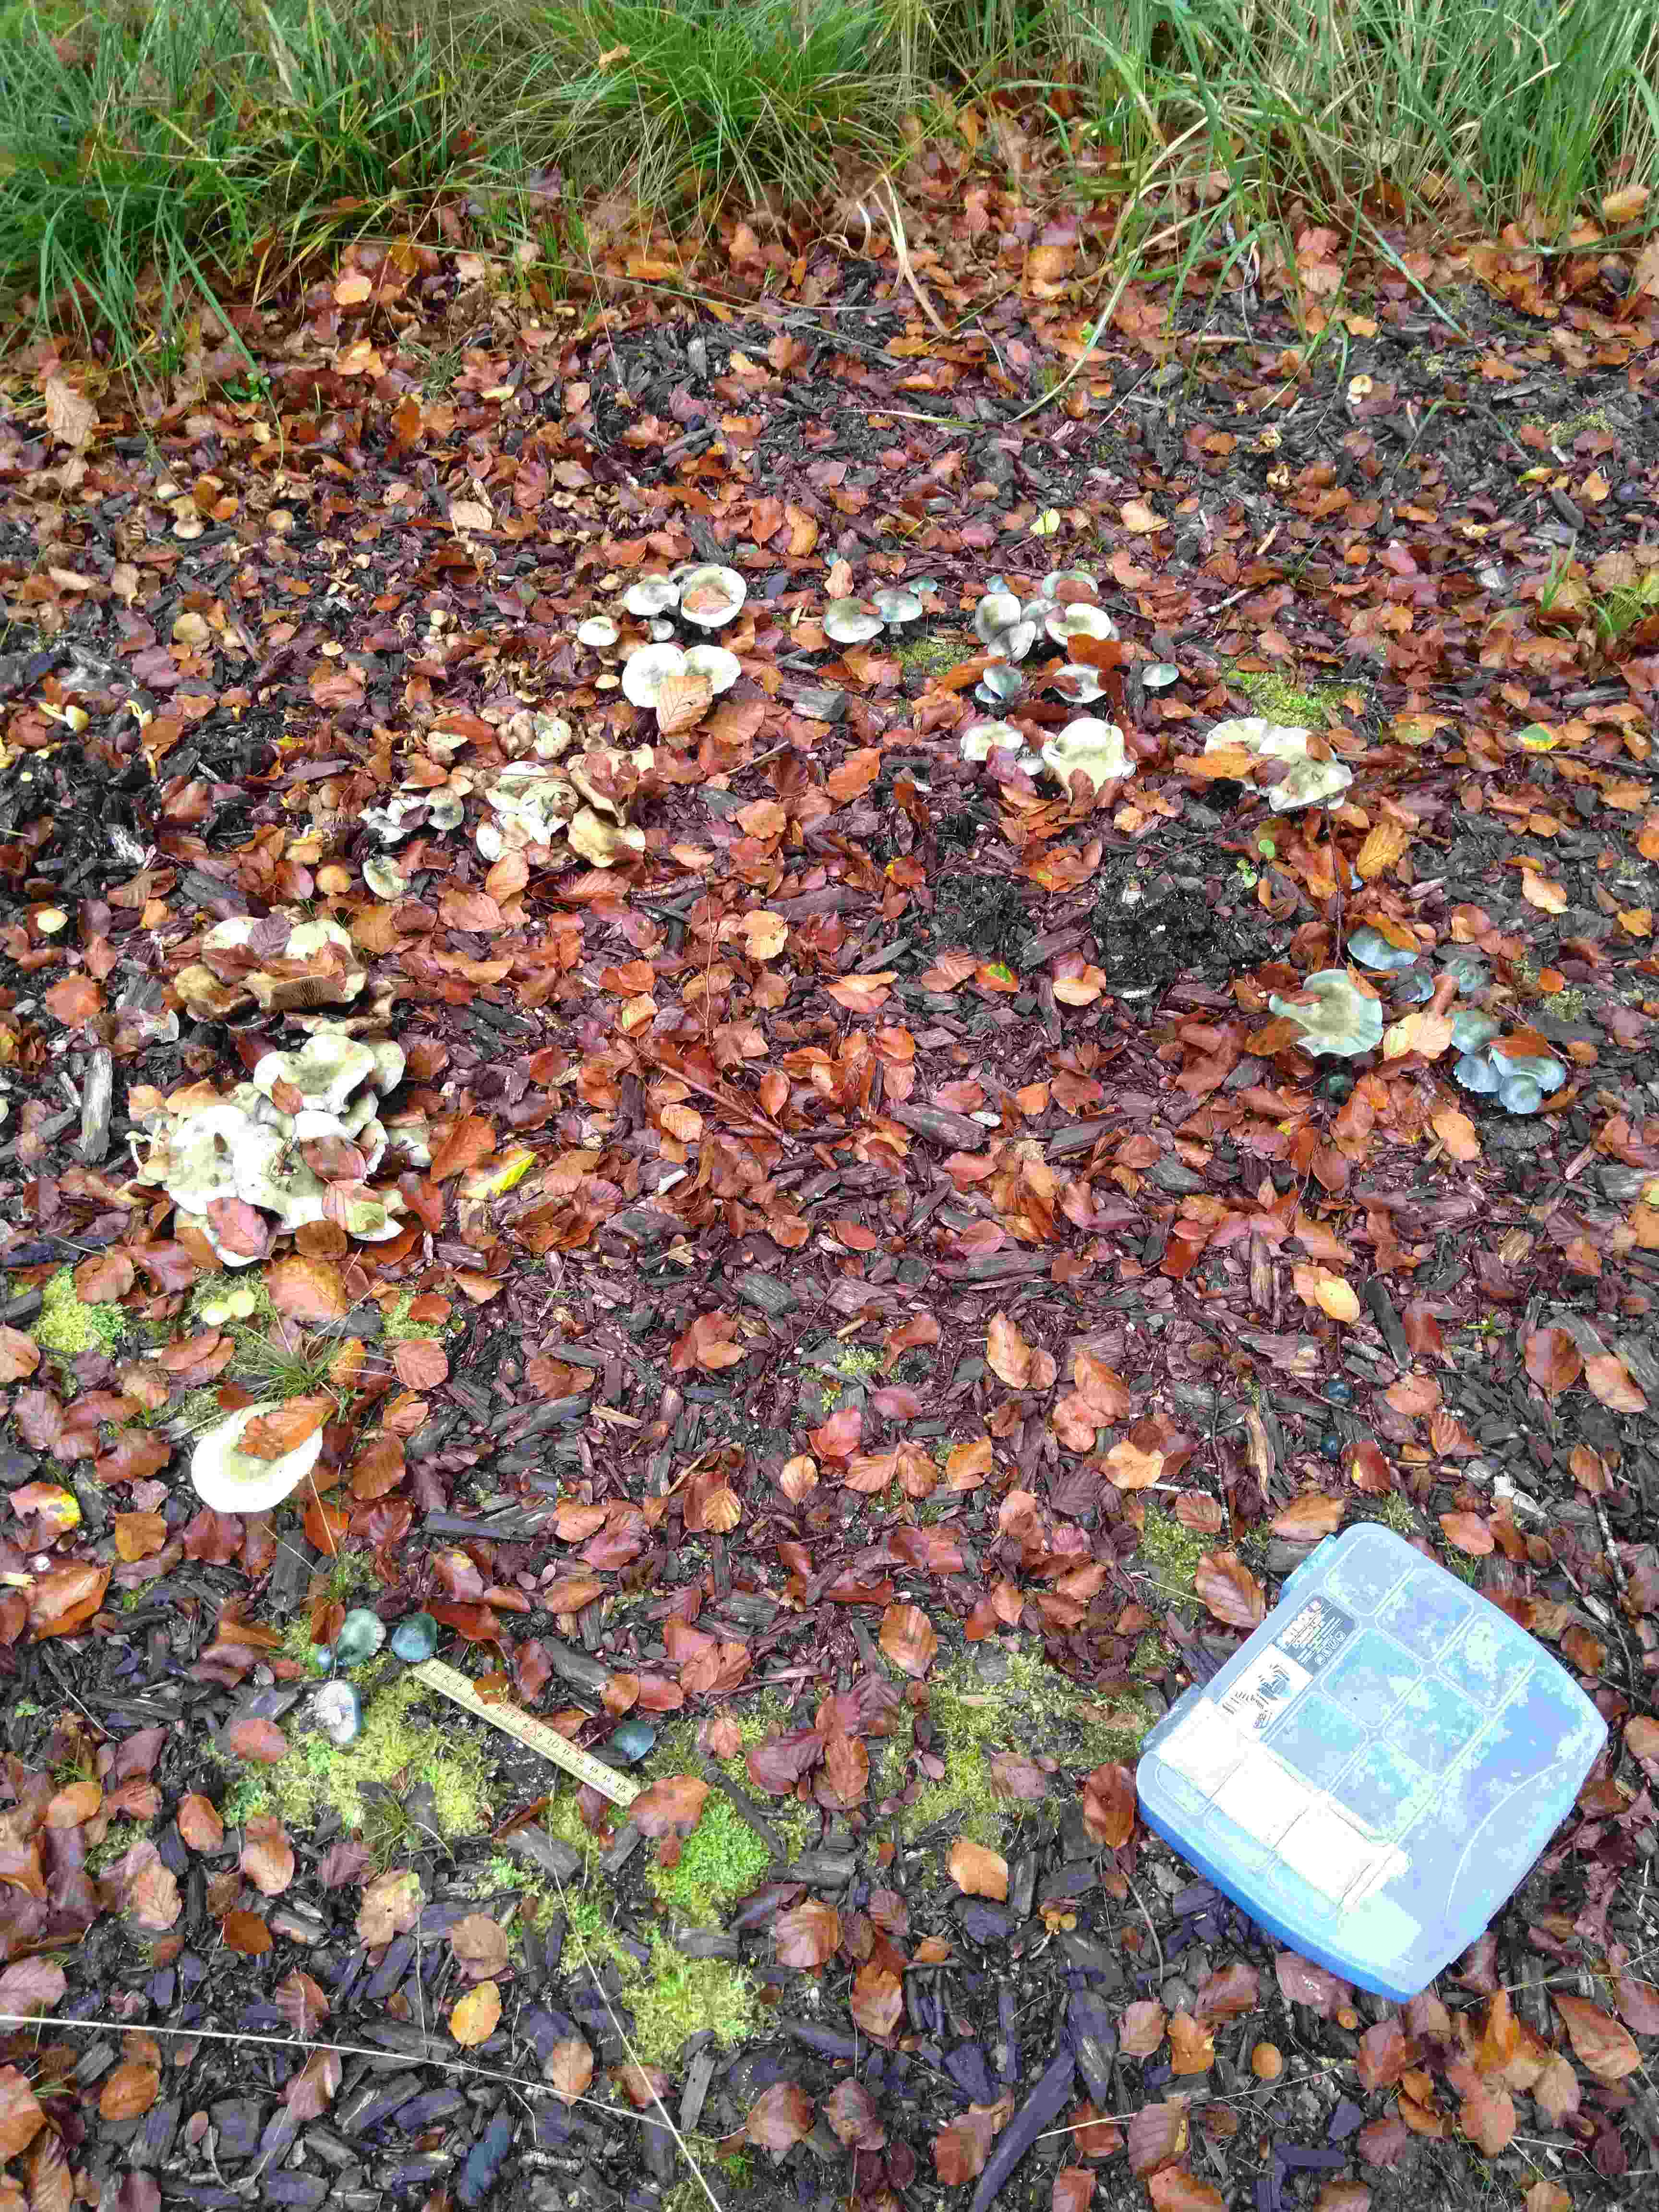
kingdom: Fungi
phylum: Basidiomycota
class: Agaricomycetes
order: Agaricales
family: Strophariaceae
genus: Stropharia
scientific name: Stropharia cyanea
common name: blågrøn bredblad
